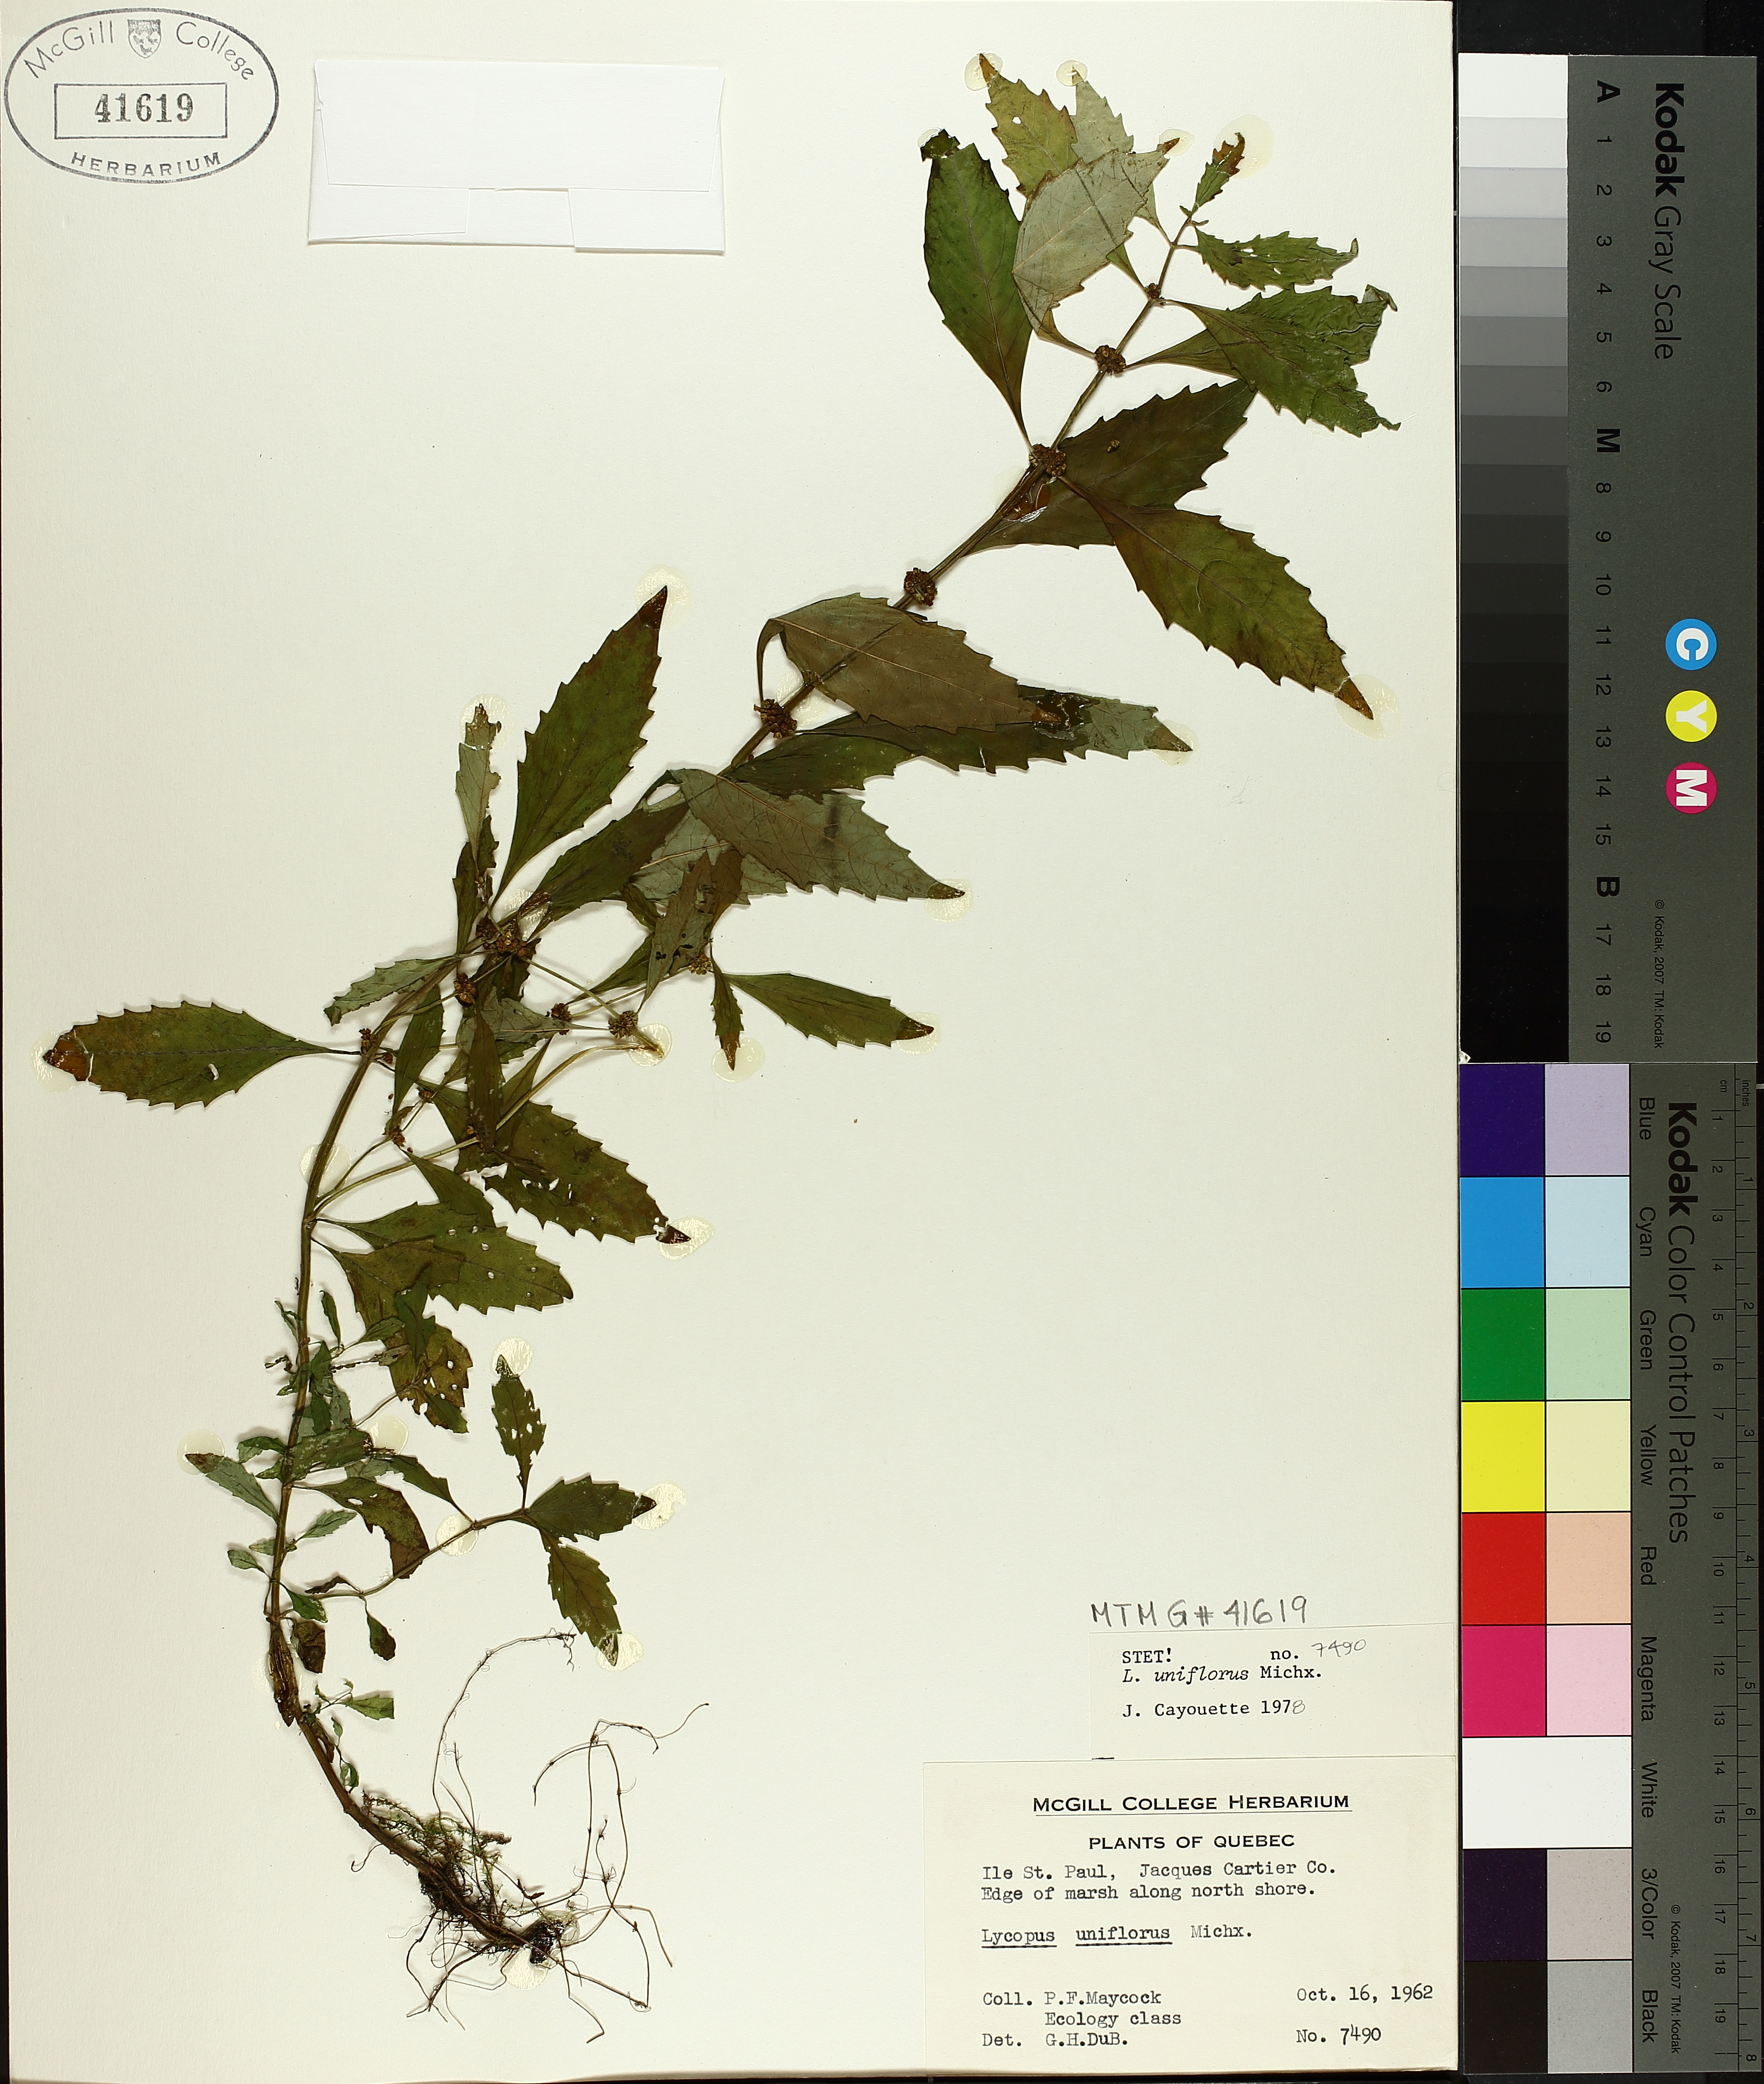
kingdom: Plantae
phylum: Tracheophyta
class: Magnoliopsida
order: Lamiales
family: Lamiaceae
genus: Lycopus
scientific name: Lycopus uniflorus
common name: Northern bugleweed
